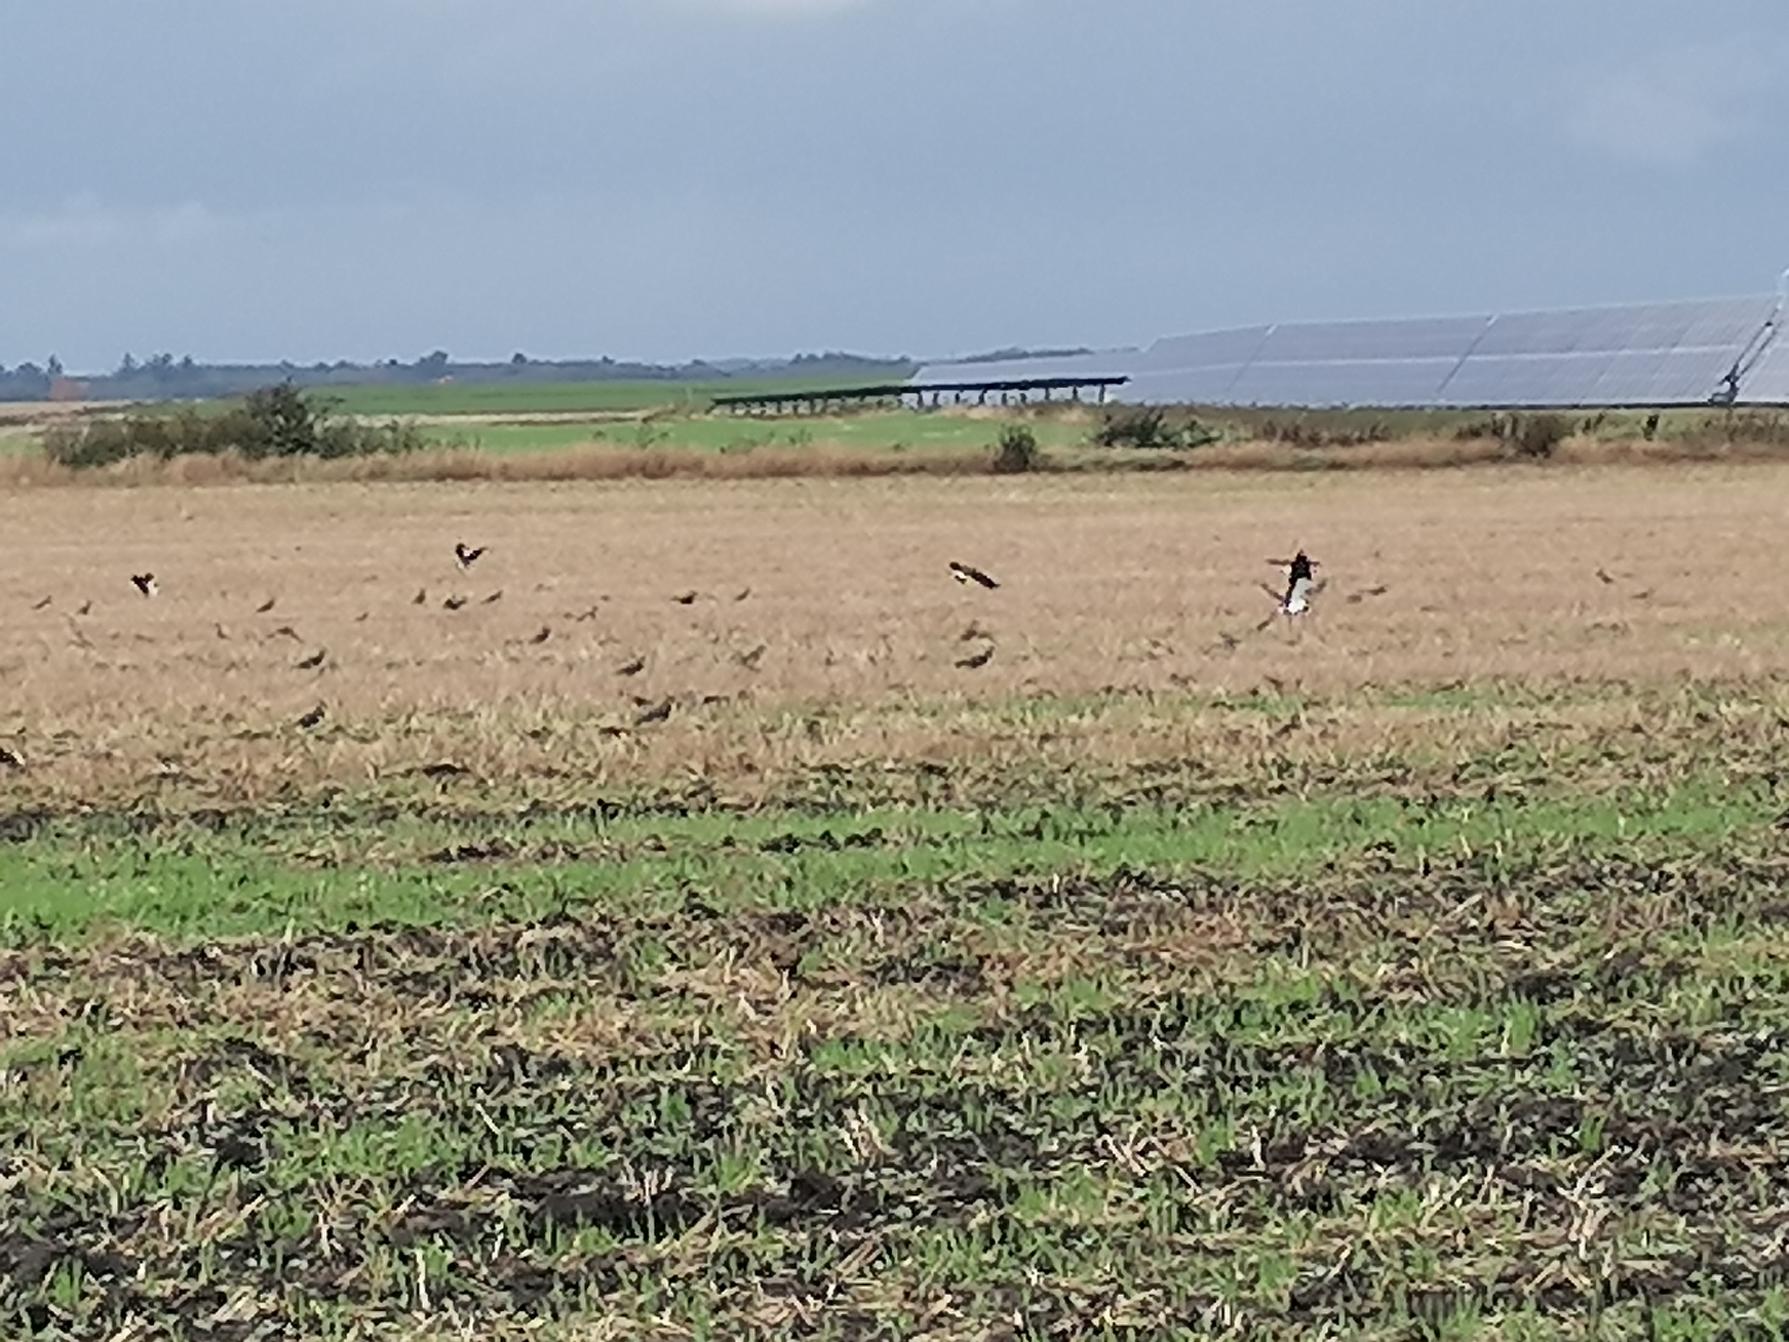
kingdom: Animalia
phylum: Chordata
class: Aves
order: Charadriiformes
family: Charadriidae
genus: Vanellus
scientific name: Vanellus vanellus
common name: Vibe
